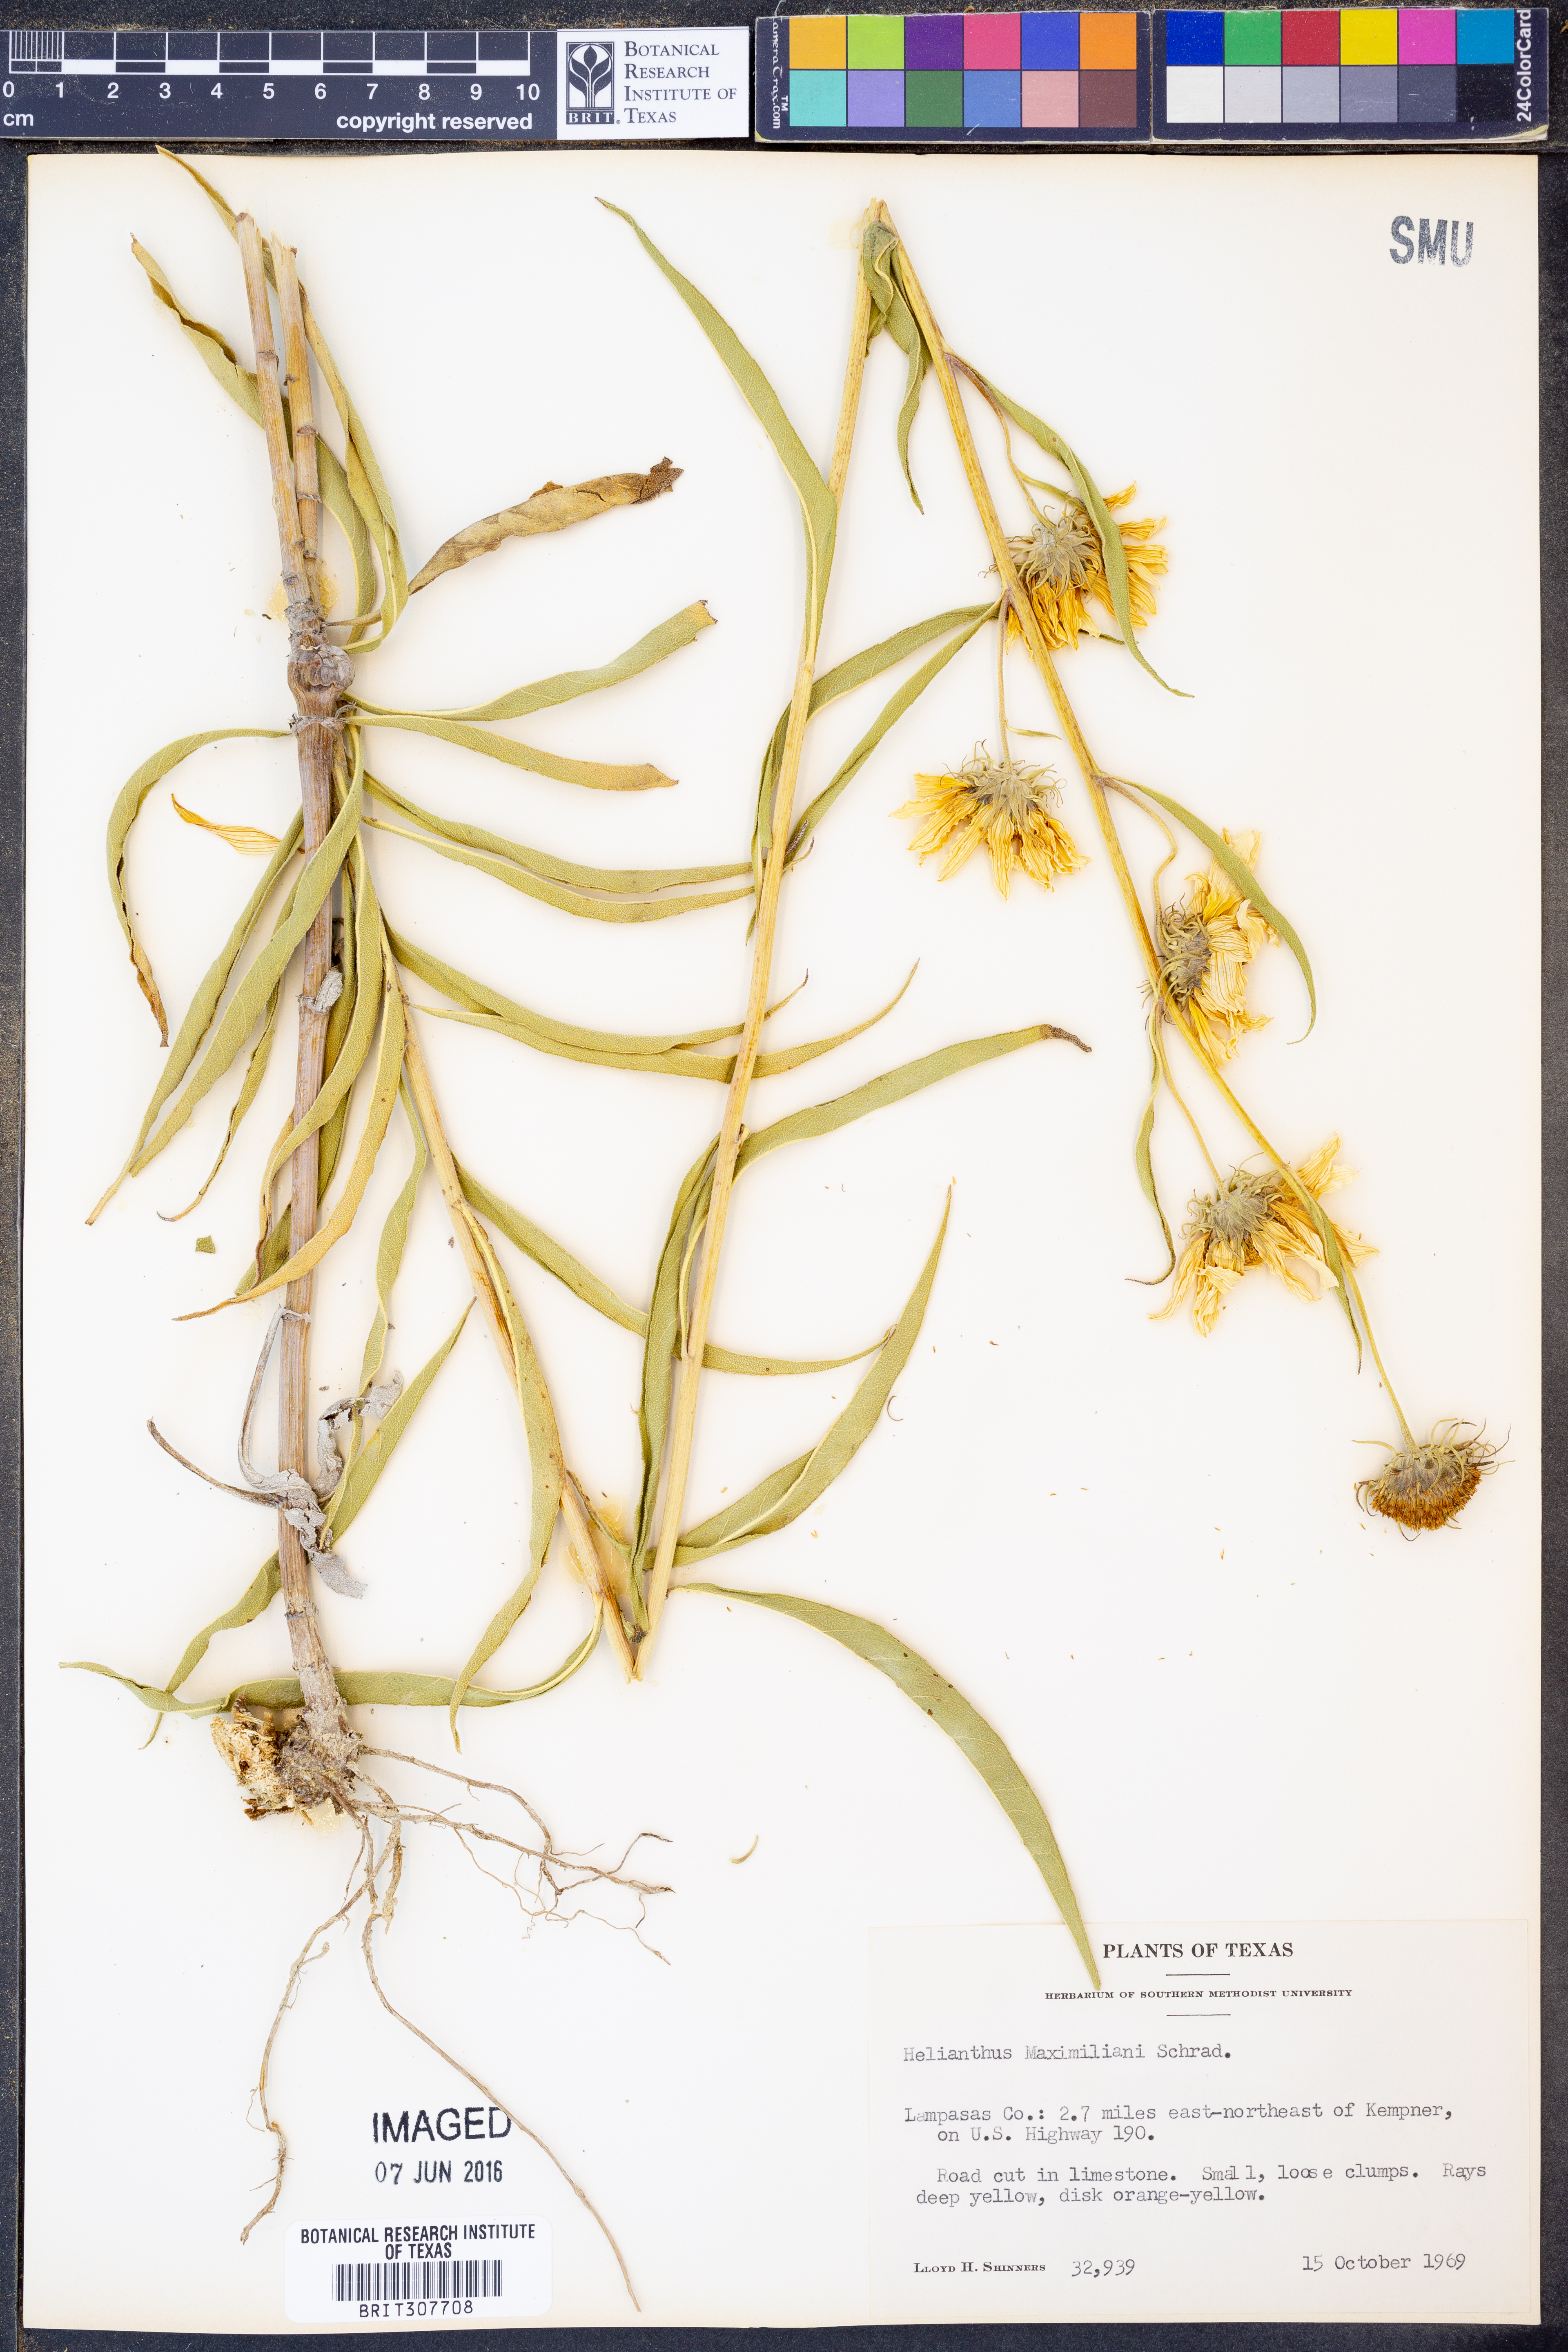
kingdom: Plantae
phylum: Tracheophyta
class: Magnoliopsida
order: Asterales
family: Asteraceae
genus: Helianthus
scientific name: Helianthus maximiliani
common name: Maximilian's sunflower
